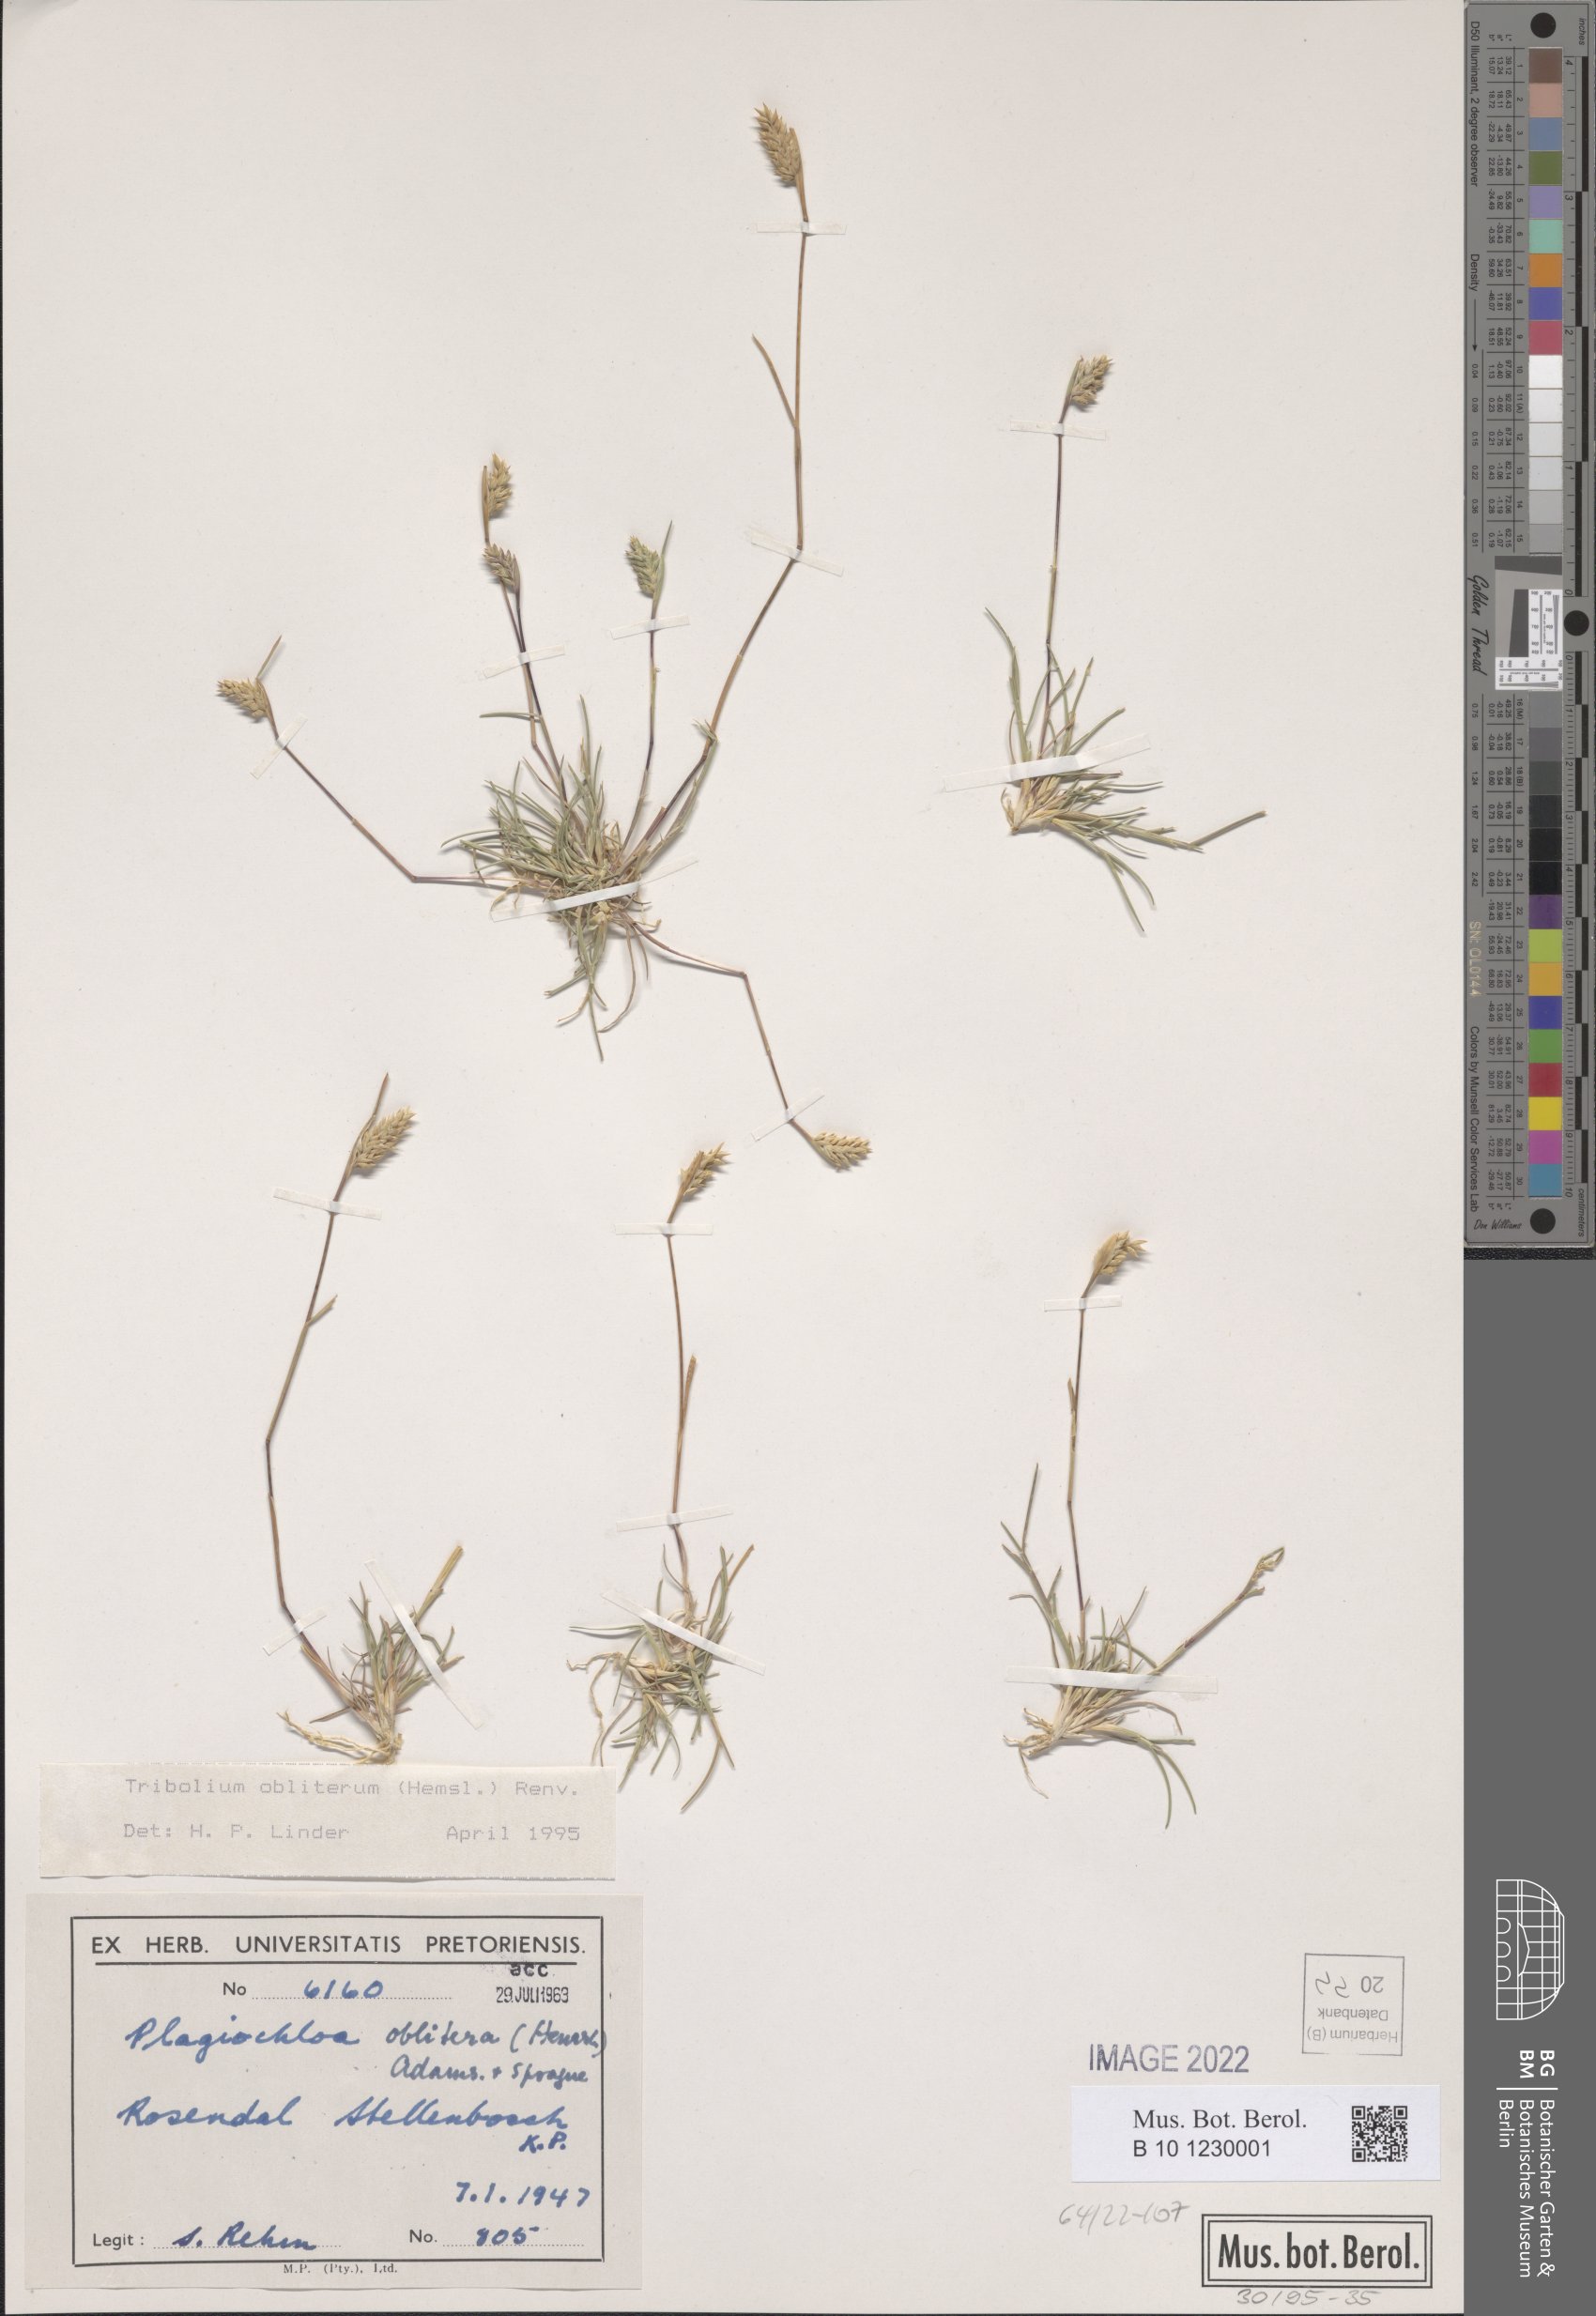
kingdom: Plantae
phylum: Tracheophyta
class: Liliopsida
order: Poales
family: Poaceae
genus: Tribolium
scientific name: Tribolium obliterum
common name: Capetown grass
